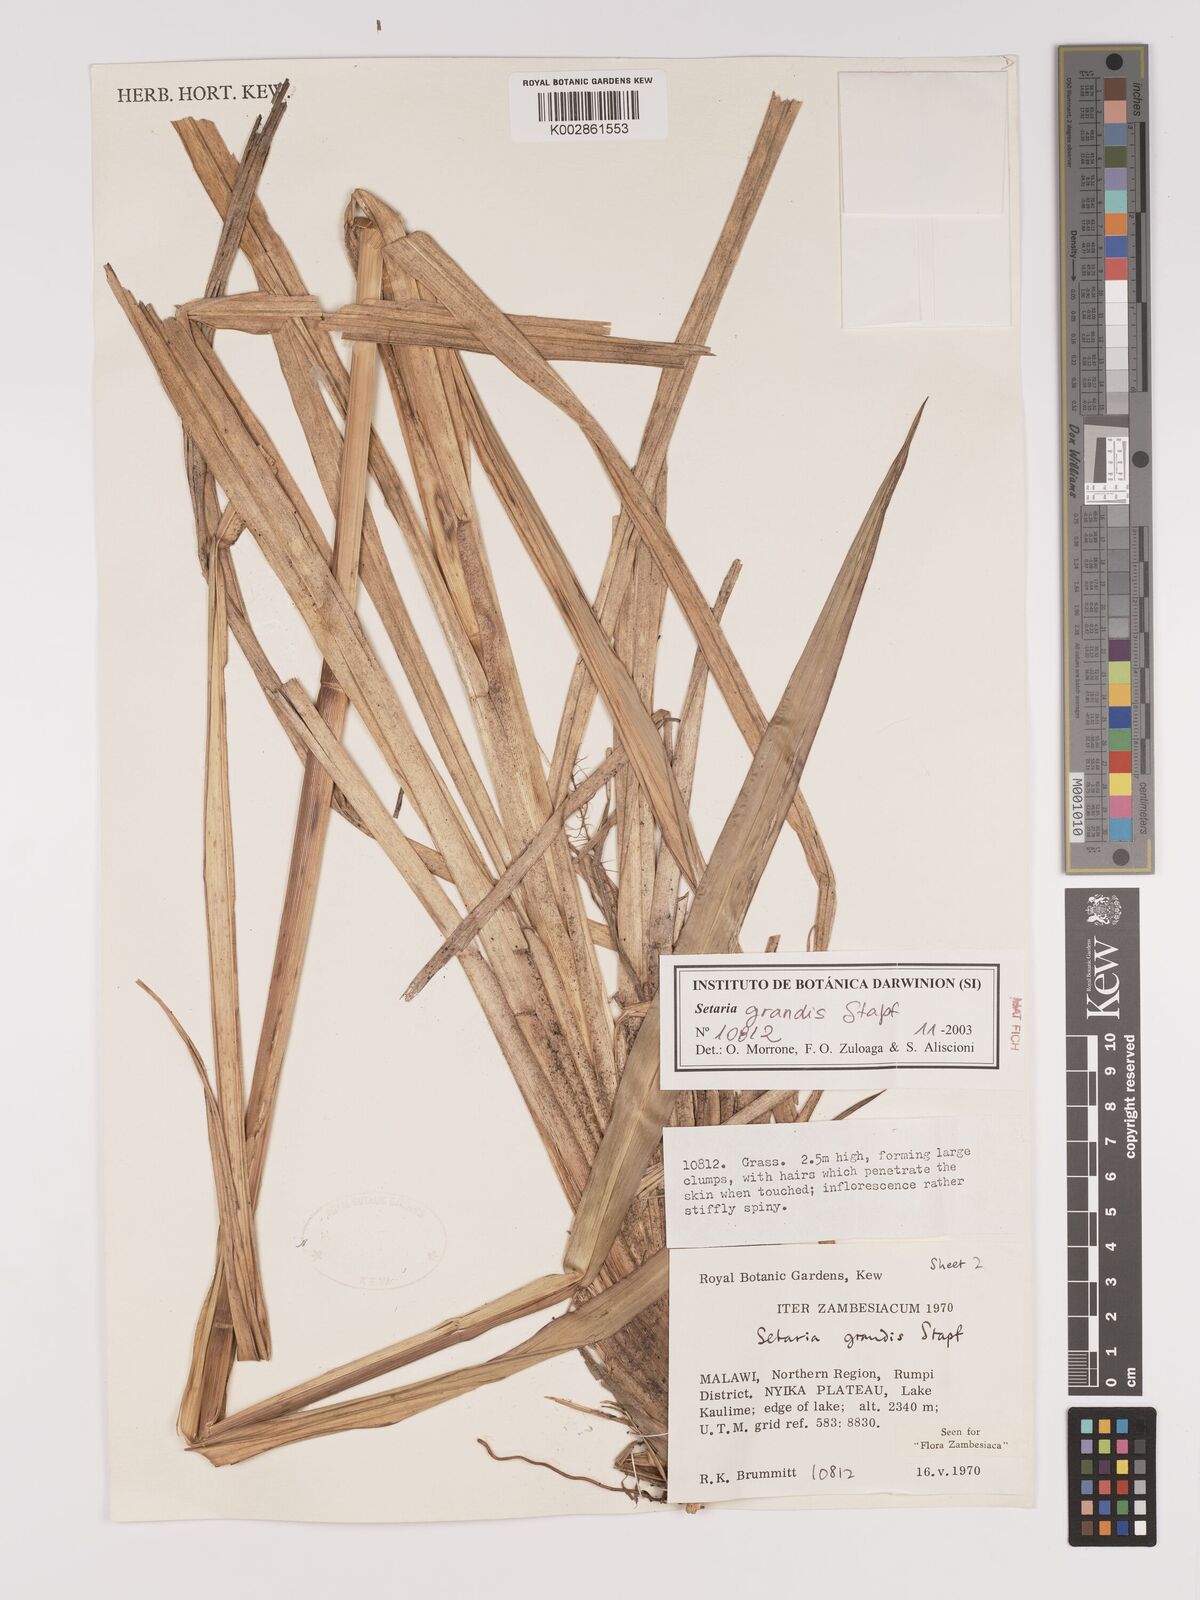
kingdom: Plantae
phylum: Tracheophyta
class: Liliopsida
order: Poales
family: Poaceae
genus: Setaria
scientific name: Setaria grandis
